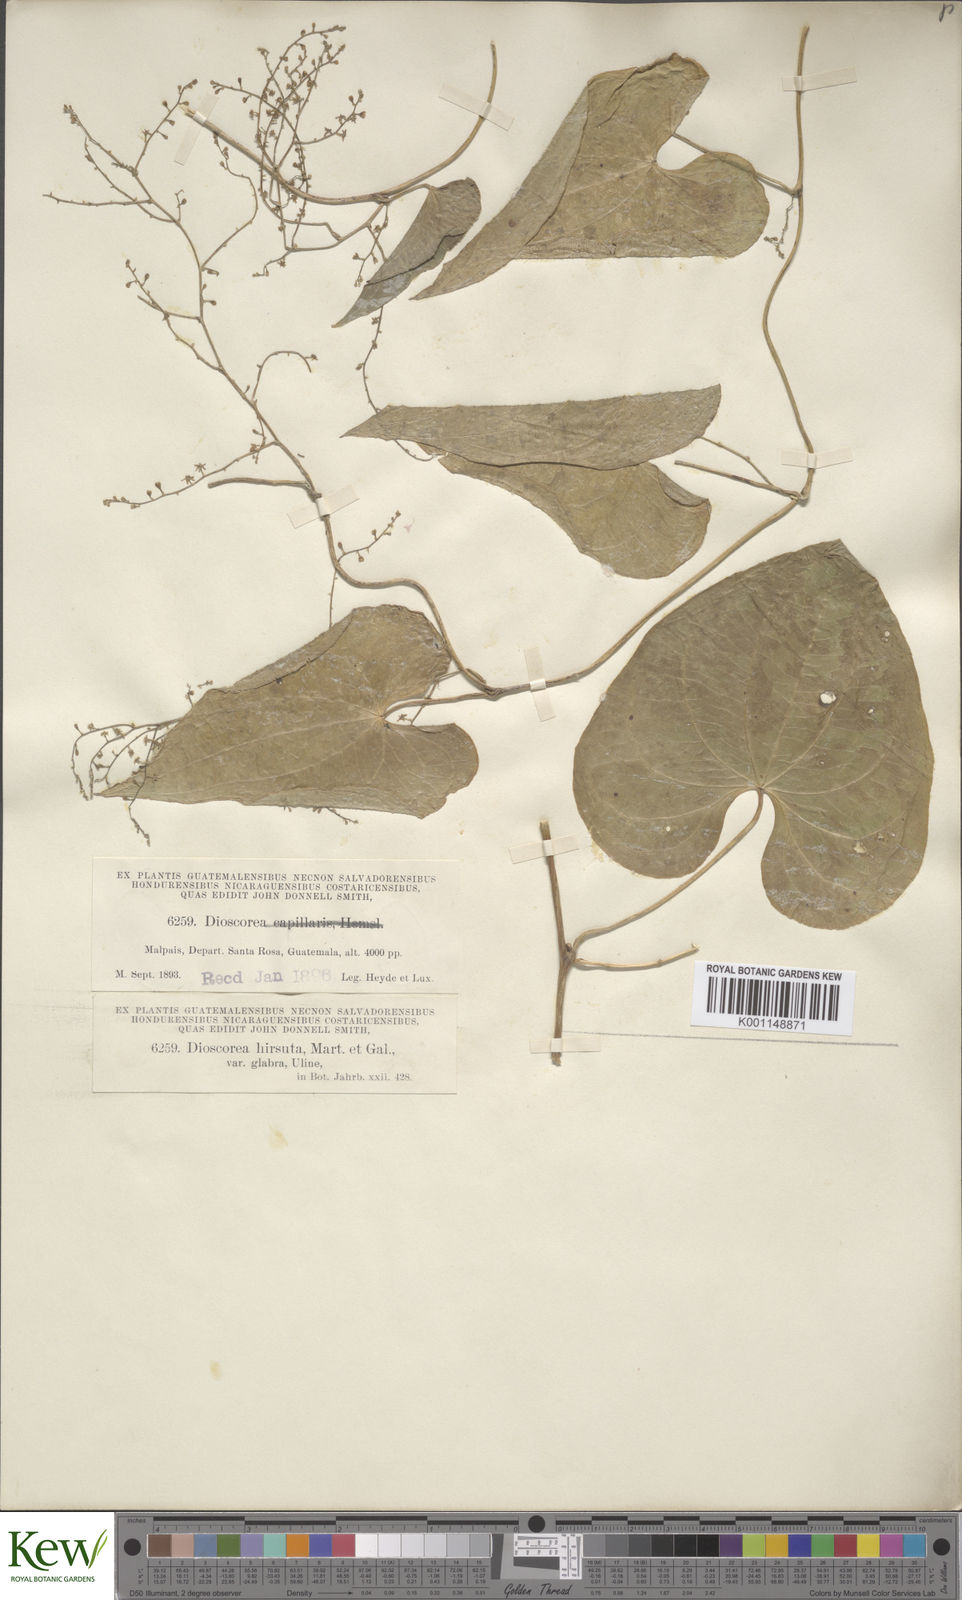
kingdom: Plantae
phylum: Tracheophyta
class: Liliopsida
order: Dioscoreales
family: Dioscoreaceae
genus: Dioscorea
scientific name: Dioscorea convolvulacea
